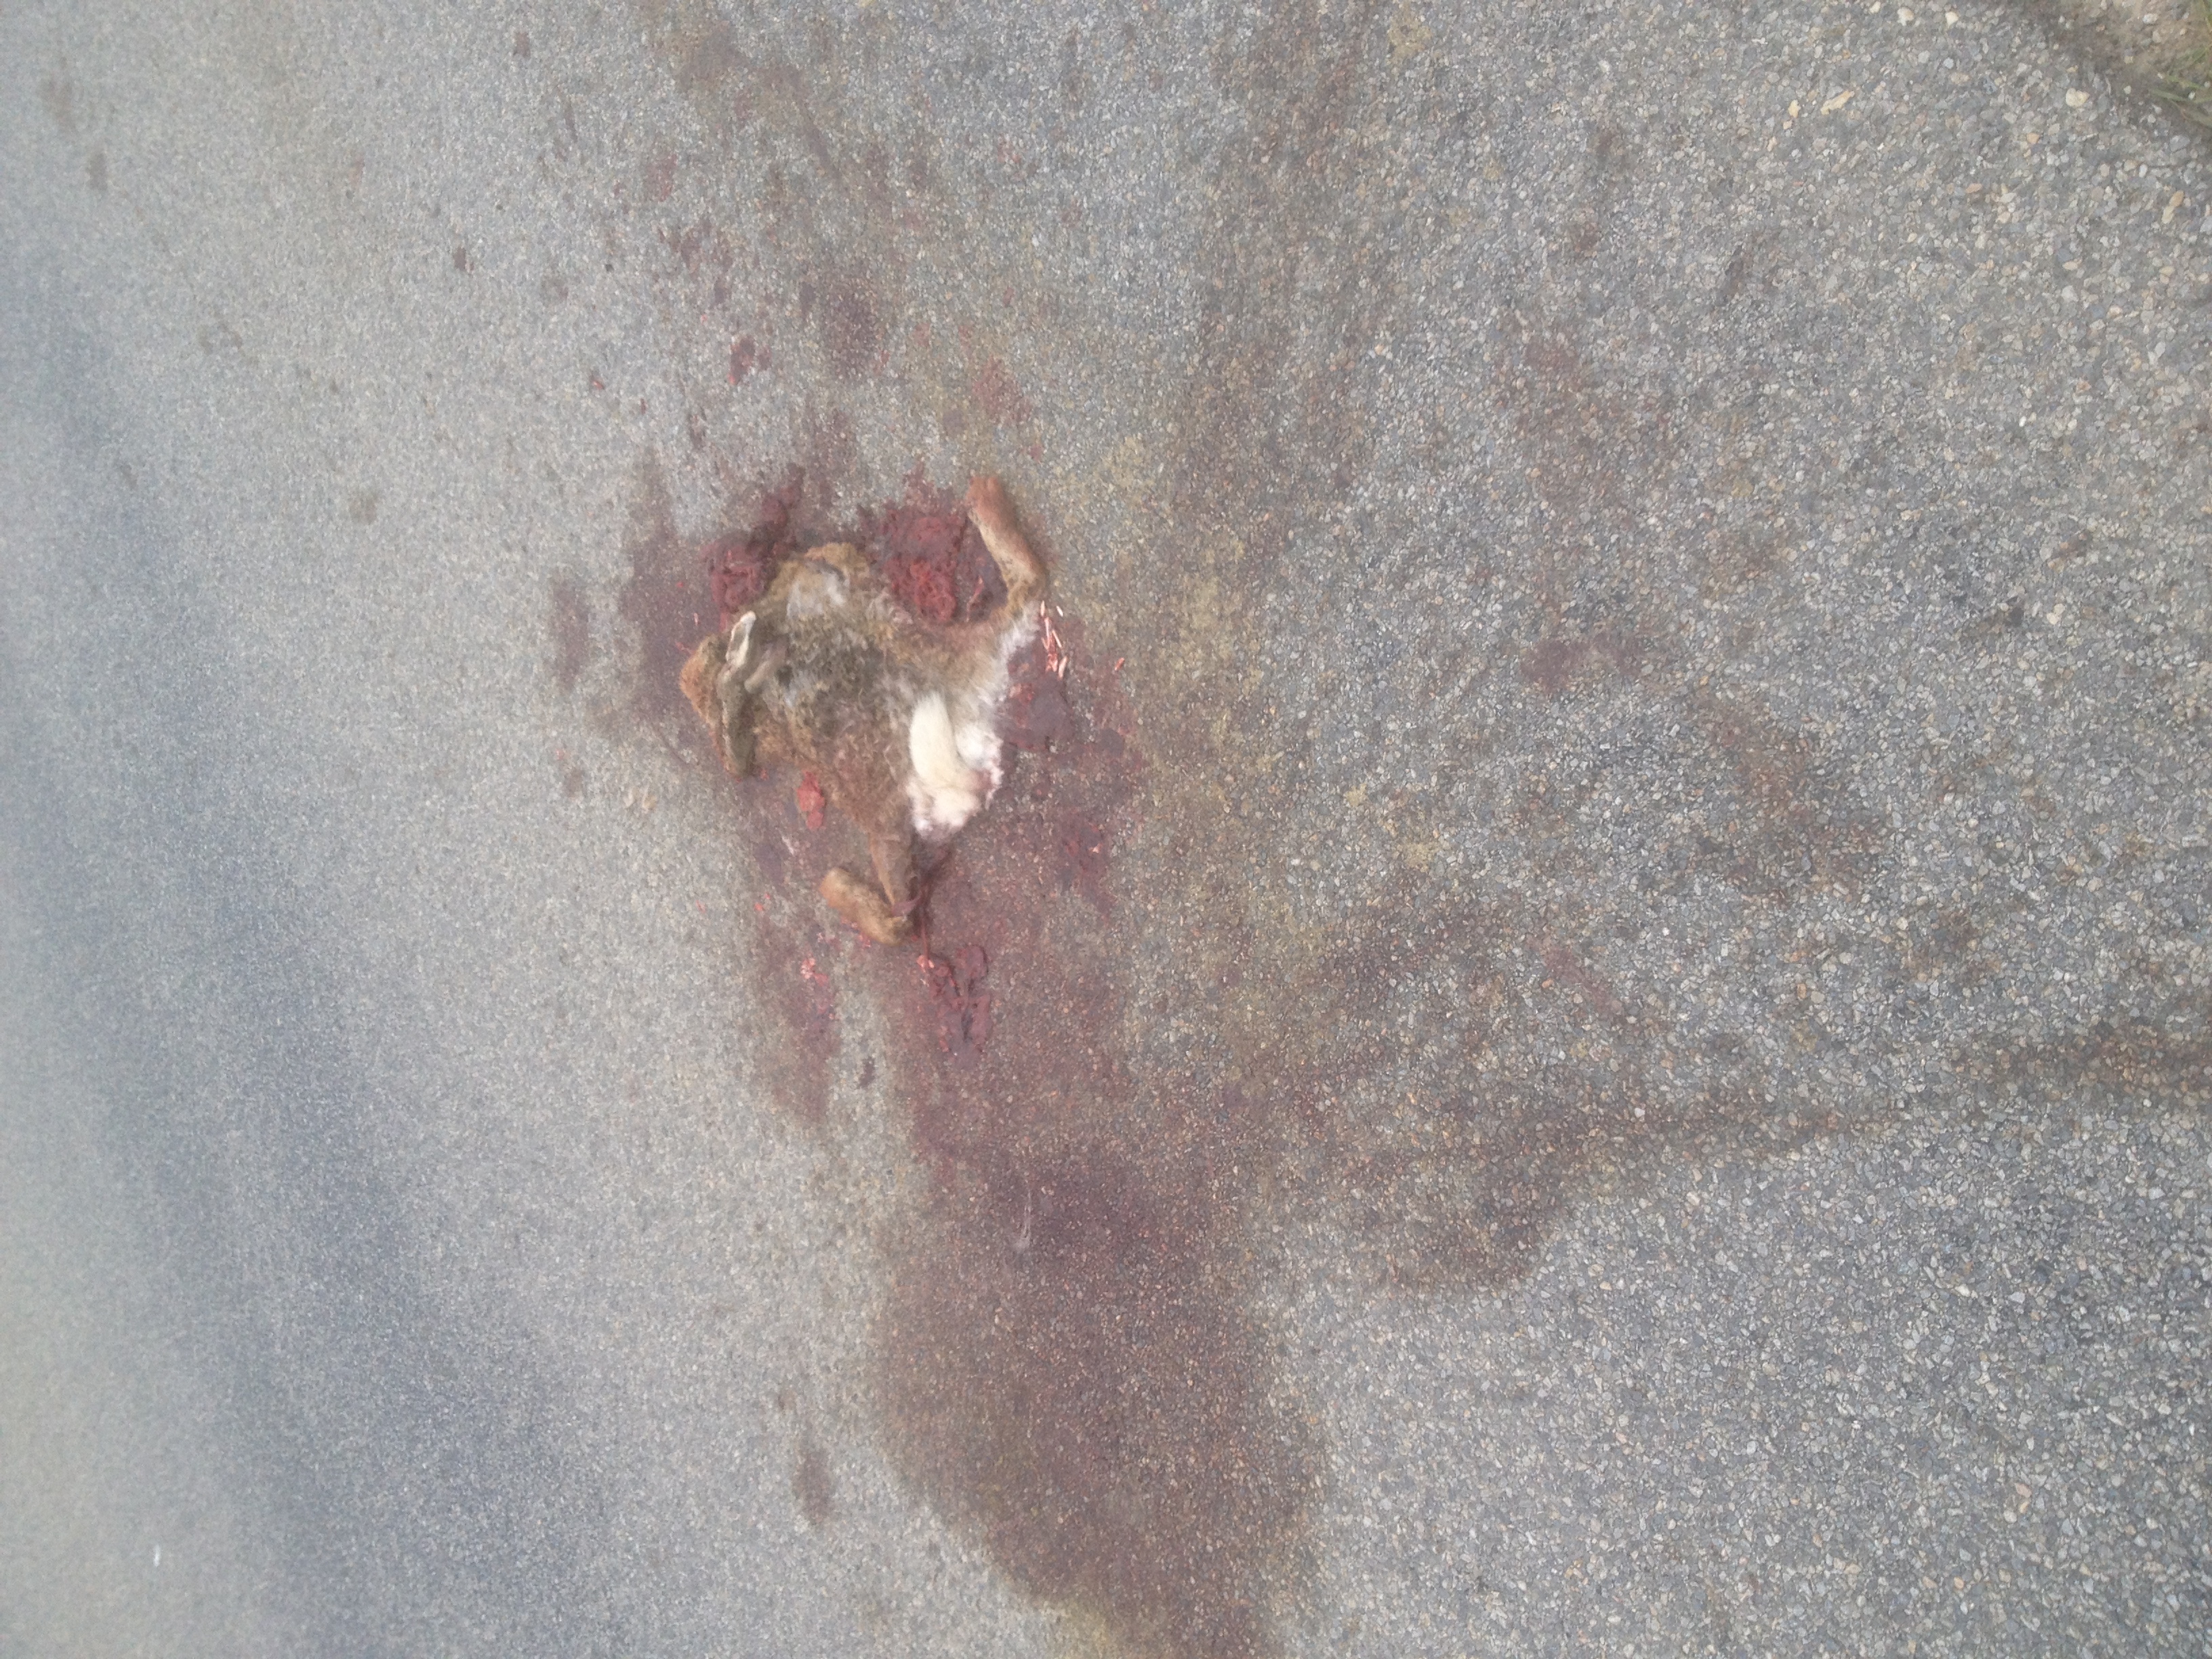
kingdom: Animalia
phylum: Chordata
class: Mammalia
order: Lagomorpha
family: Leporidae
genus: Lepus
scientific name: Lepus europaeus
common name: European hare
